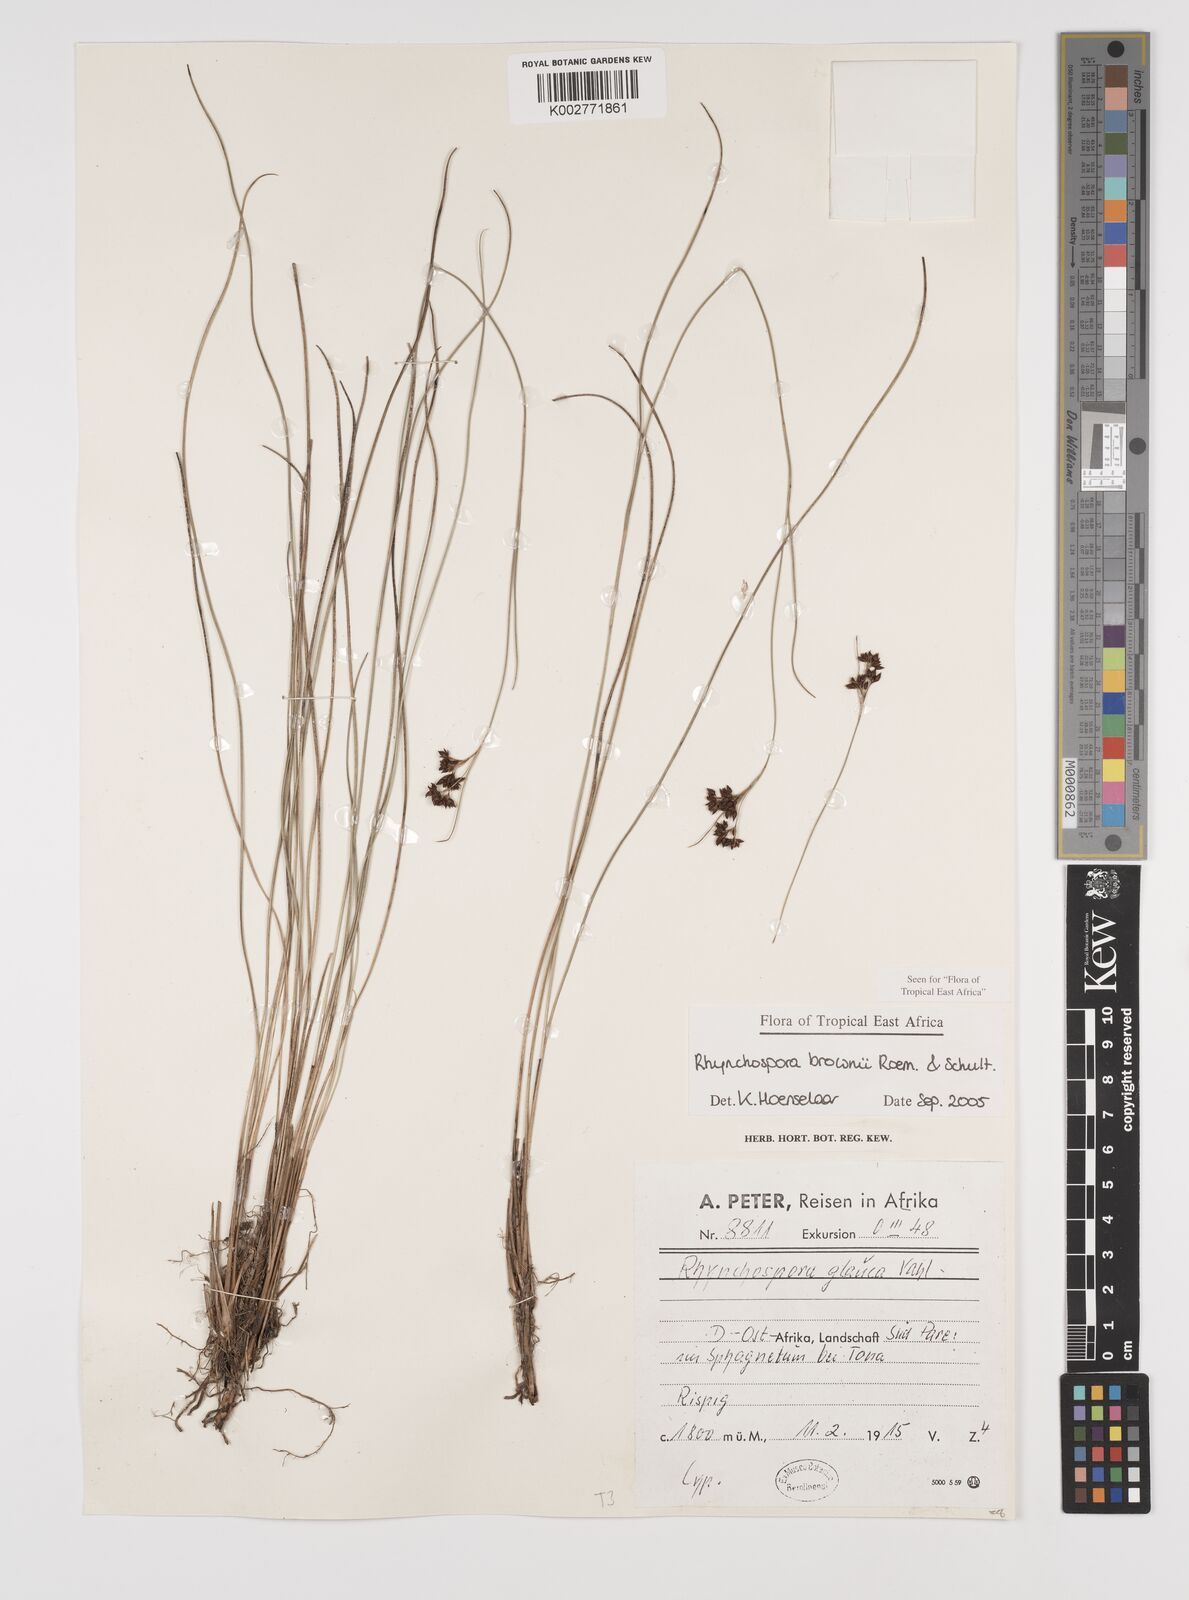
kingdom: Plantae
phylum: Tracheophyta
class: Liliopsida
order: Poales
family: Cyperaceae
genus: Rhynchospora
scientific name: Rhynchospora brownii
